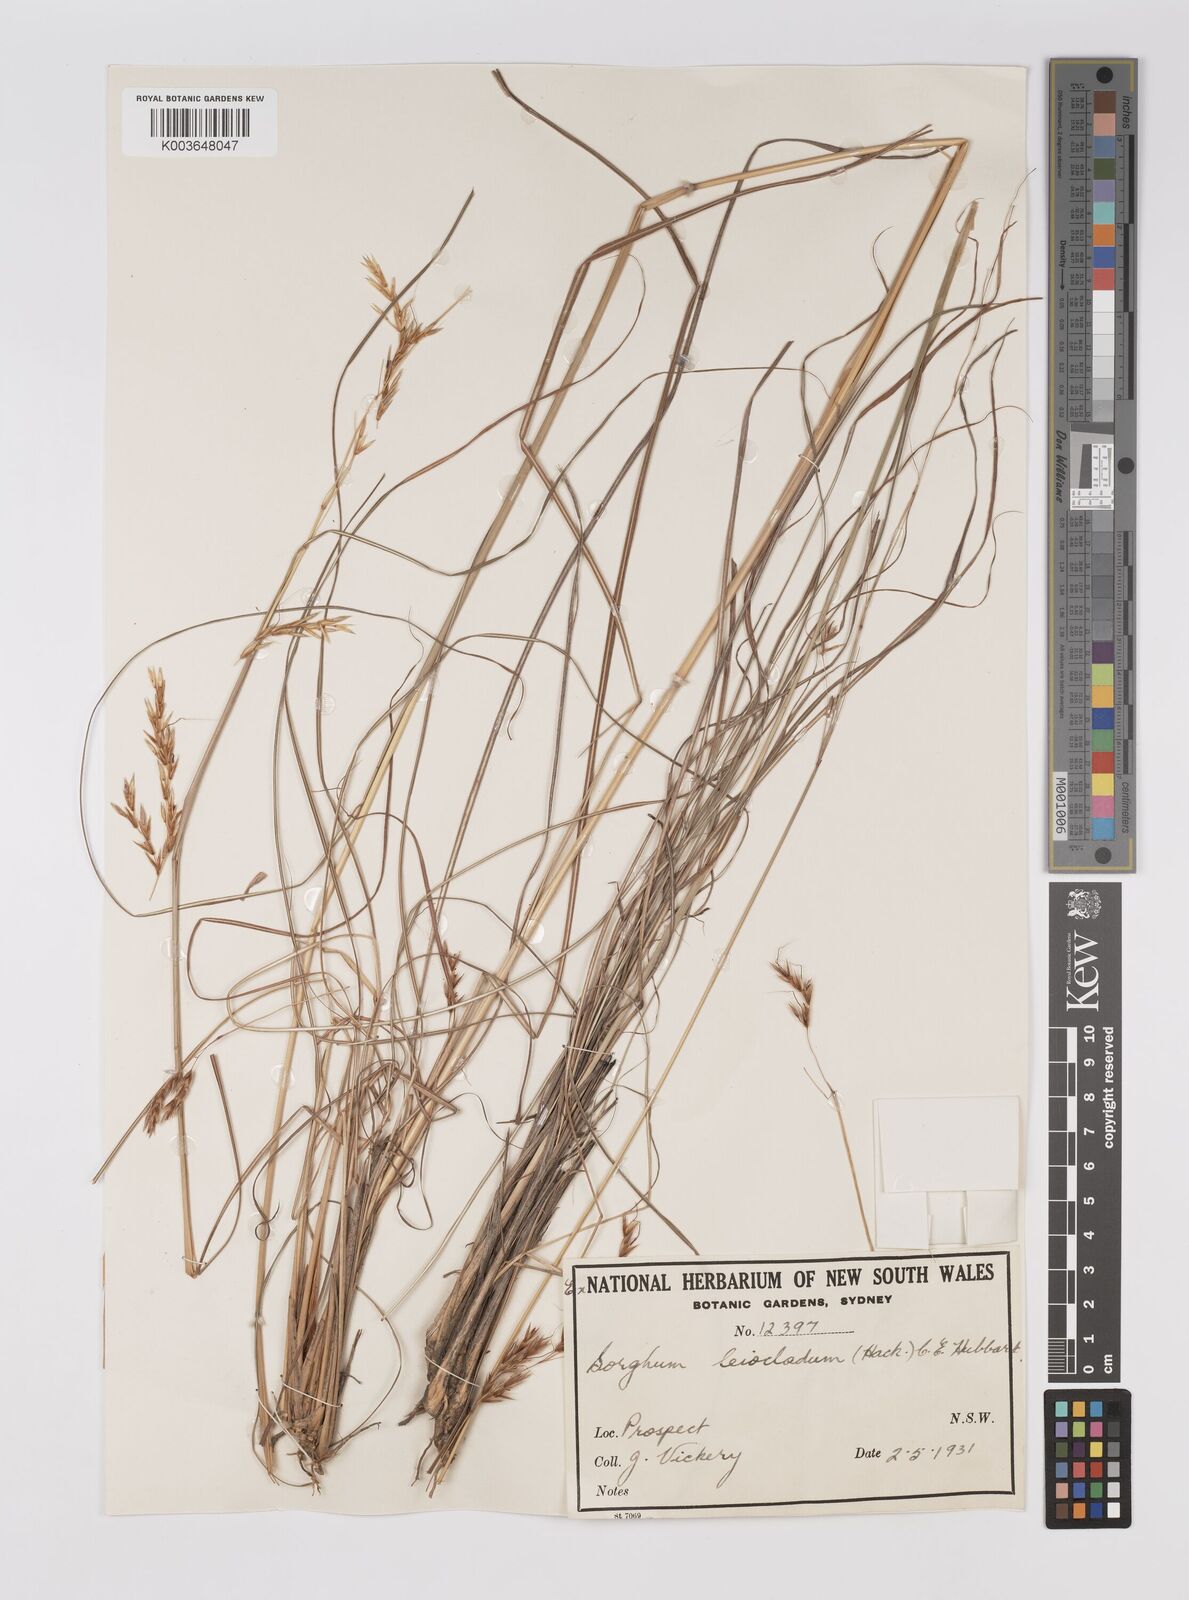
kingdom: Plantae
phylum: Tracheophyta
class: Liliopsida
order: Poales
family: Poaceae
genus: Sarga
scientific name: Sarga leioclada
